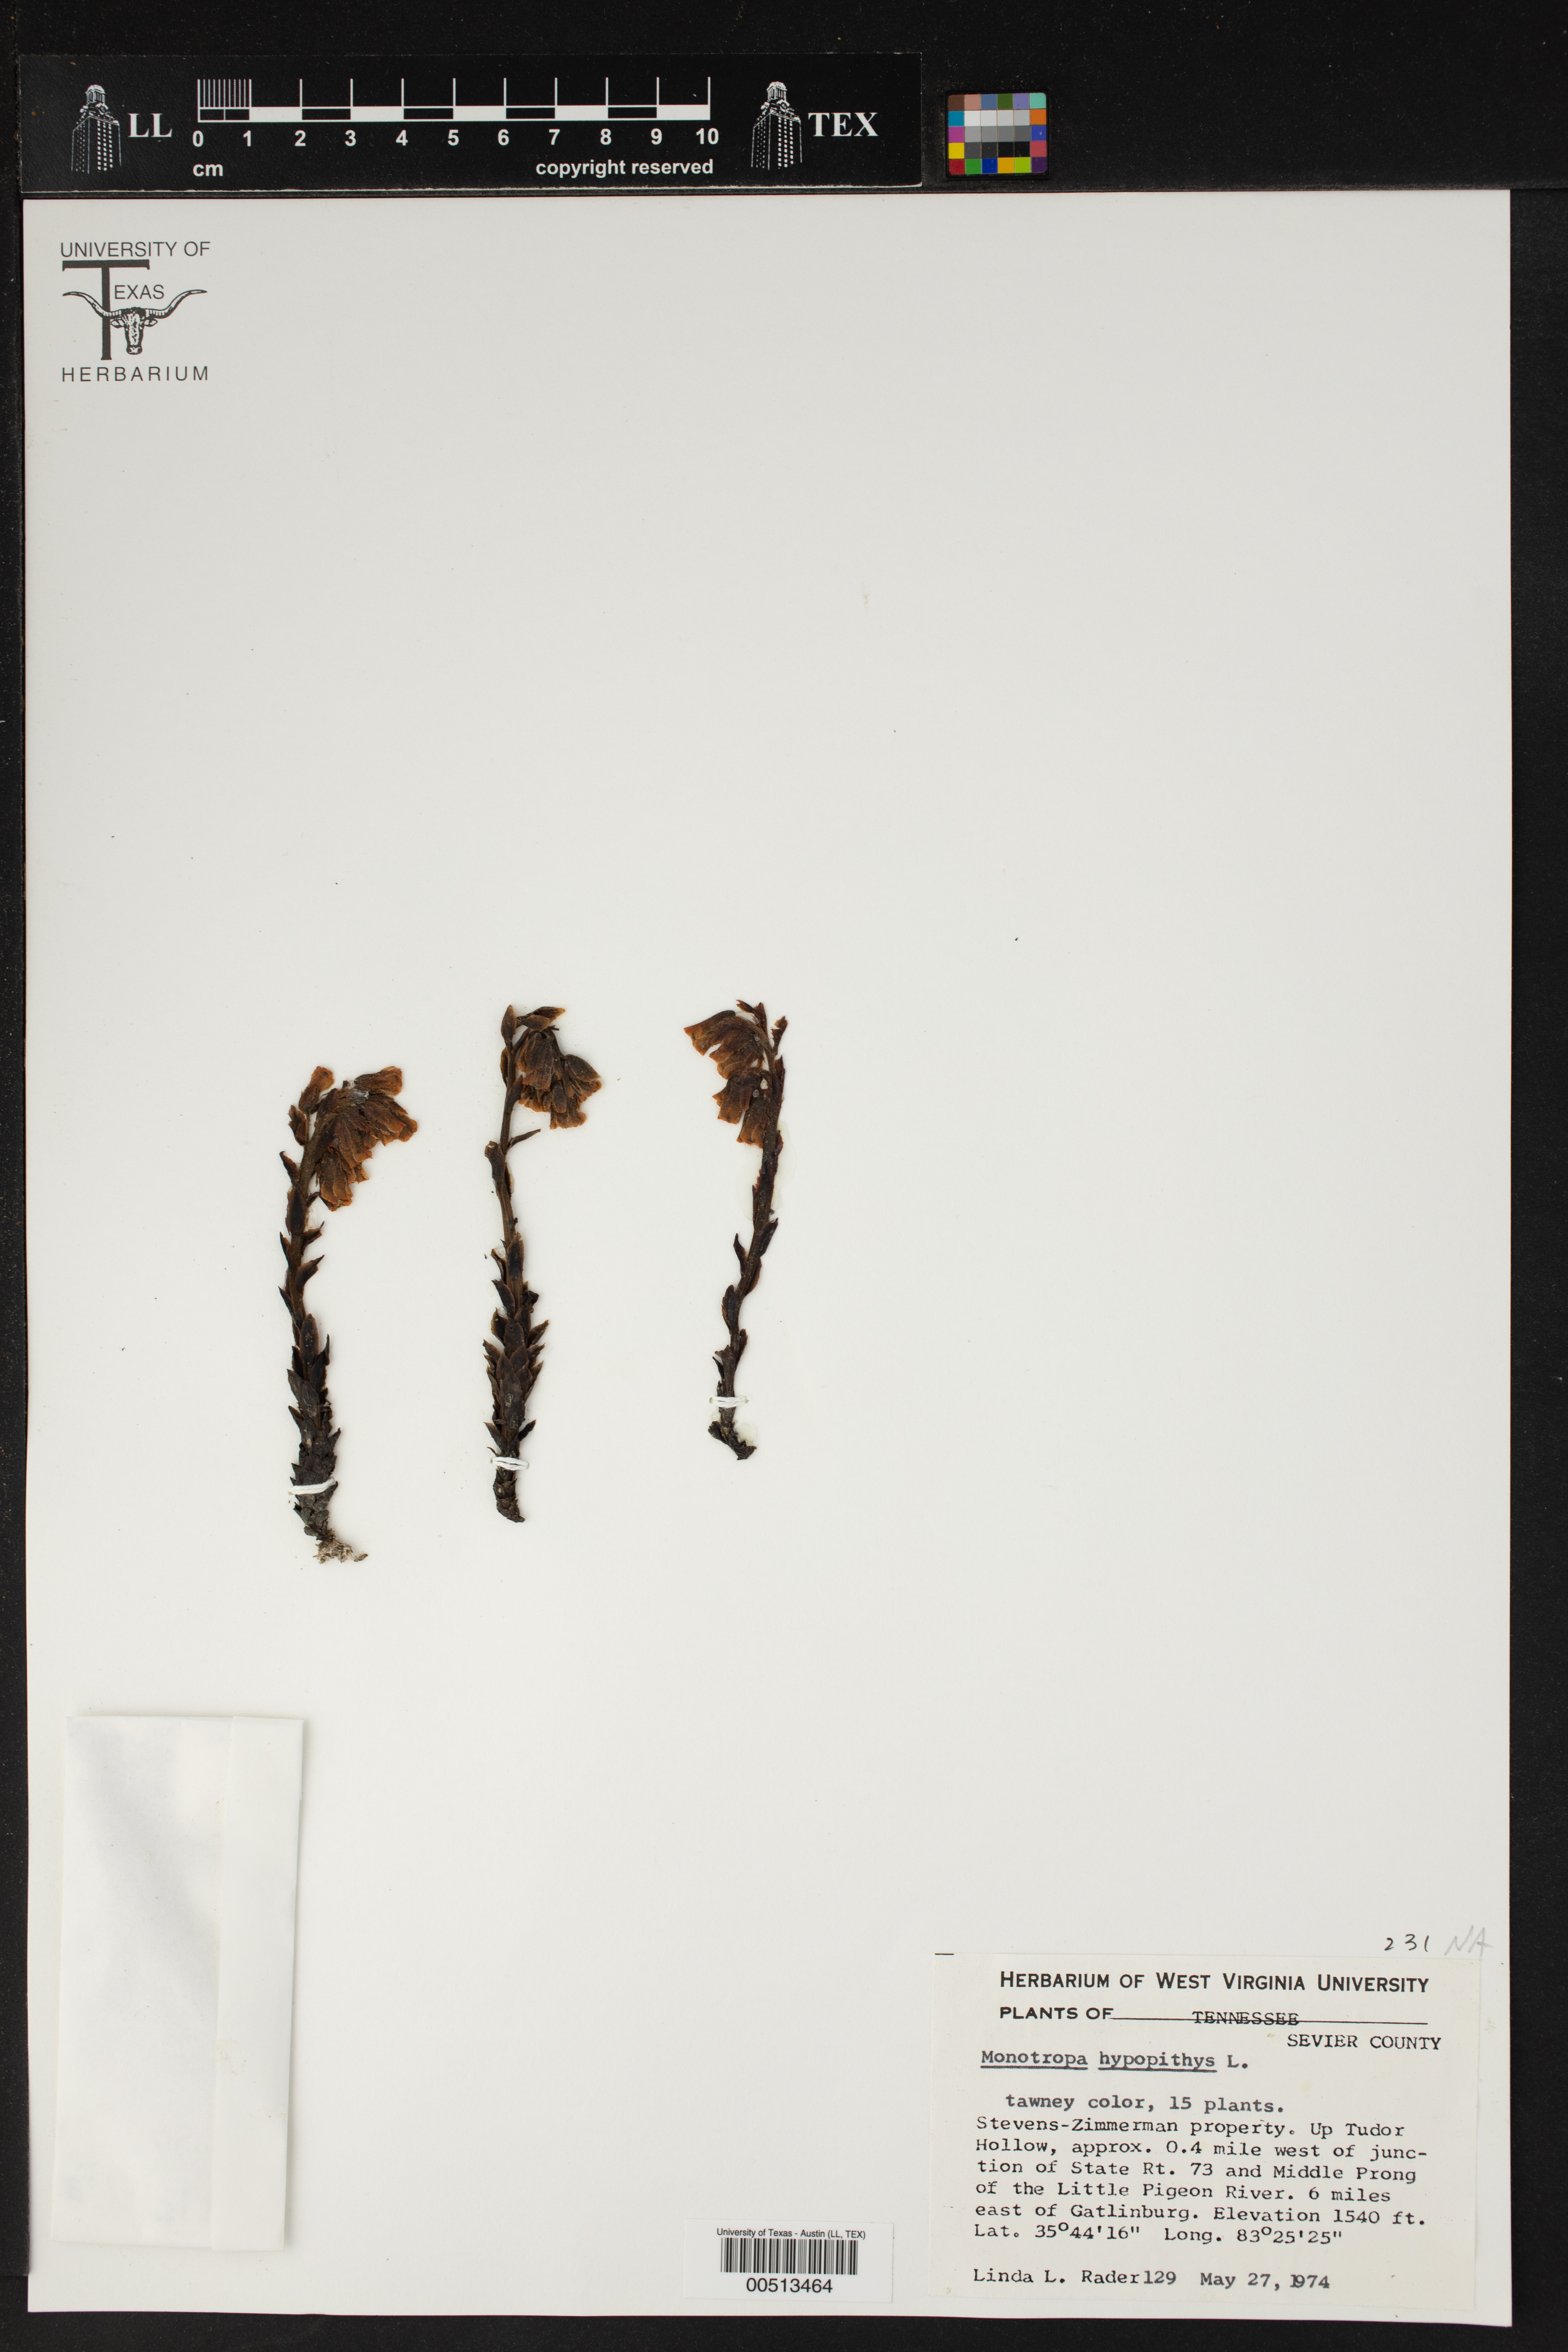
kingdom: Plantae
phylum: Tracheophyta
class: Magnoliopsida
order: Ericales
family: Ericaceae
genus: Hypopitys
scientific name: Hypopitys monotropa
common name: Yellow bird's-nest
